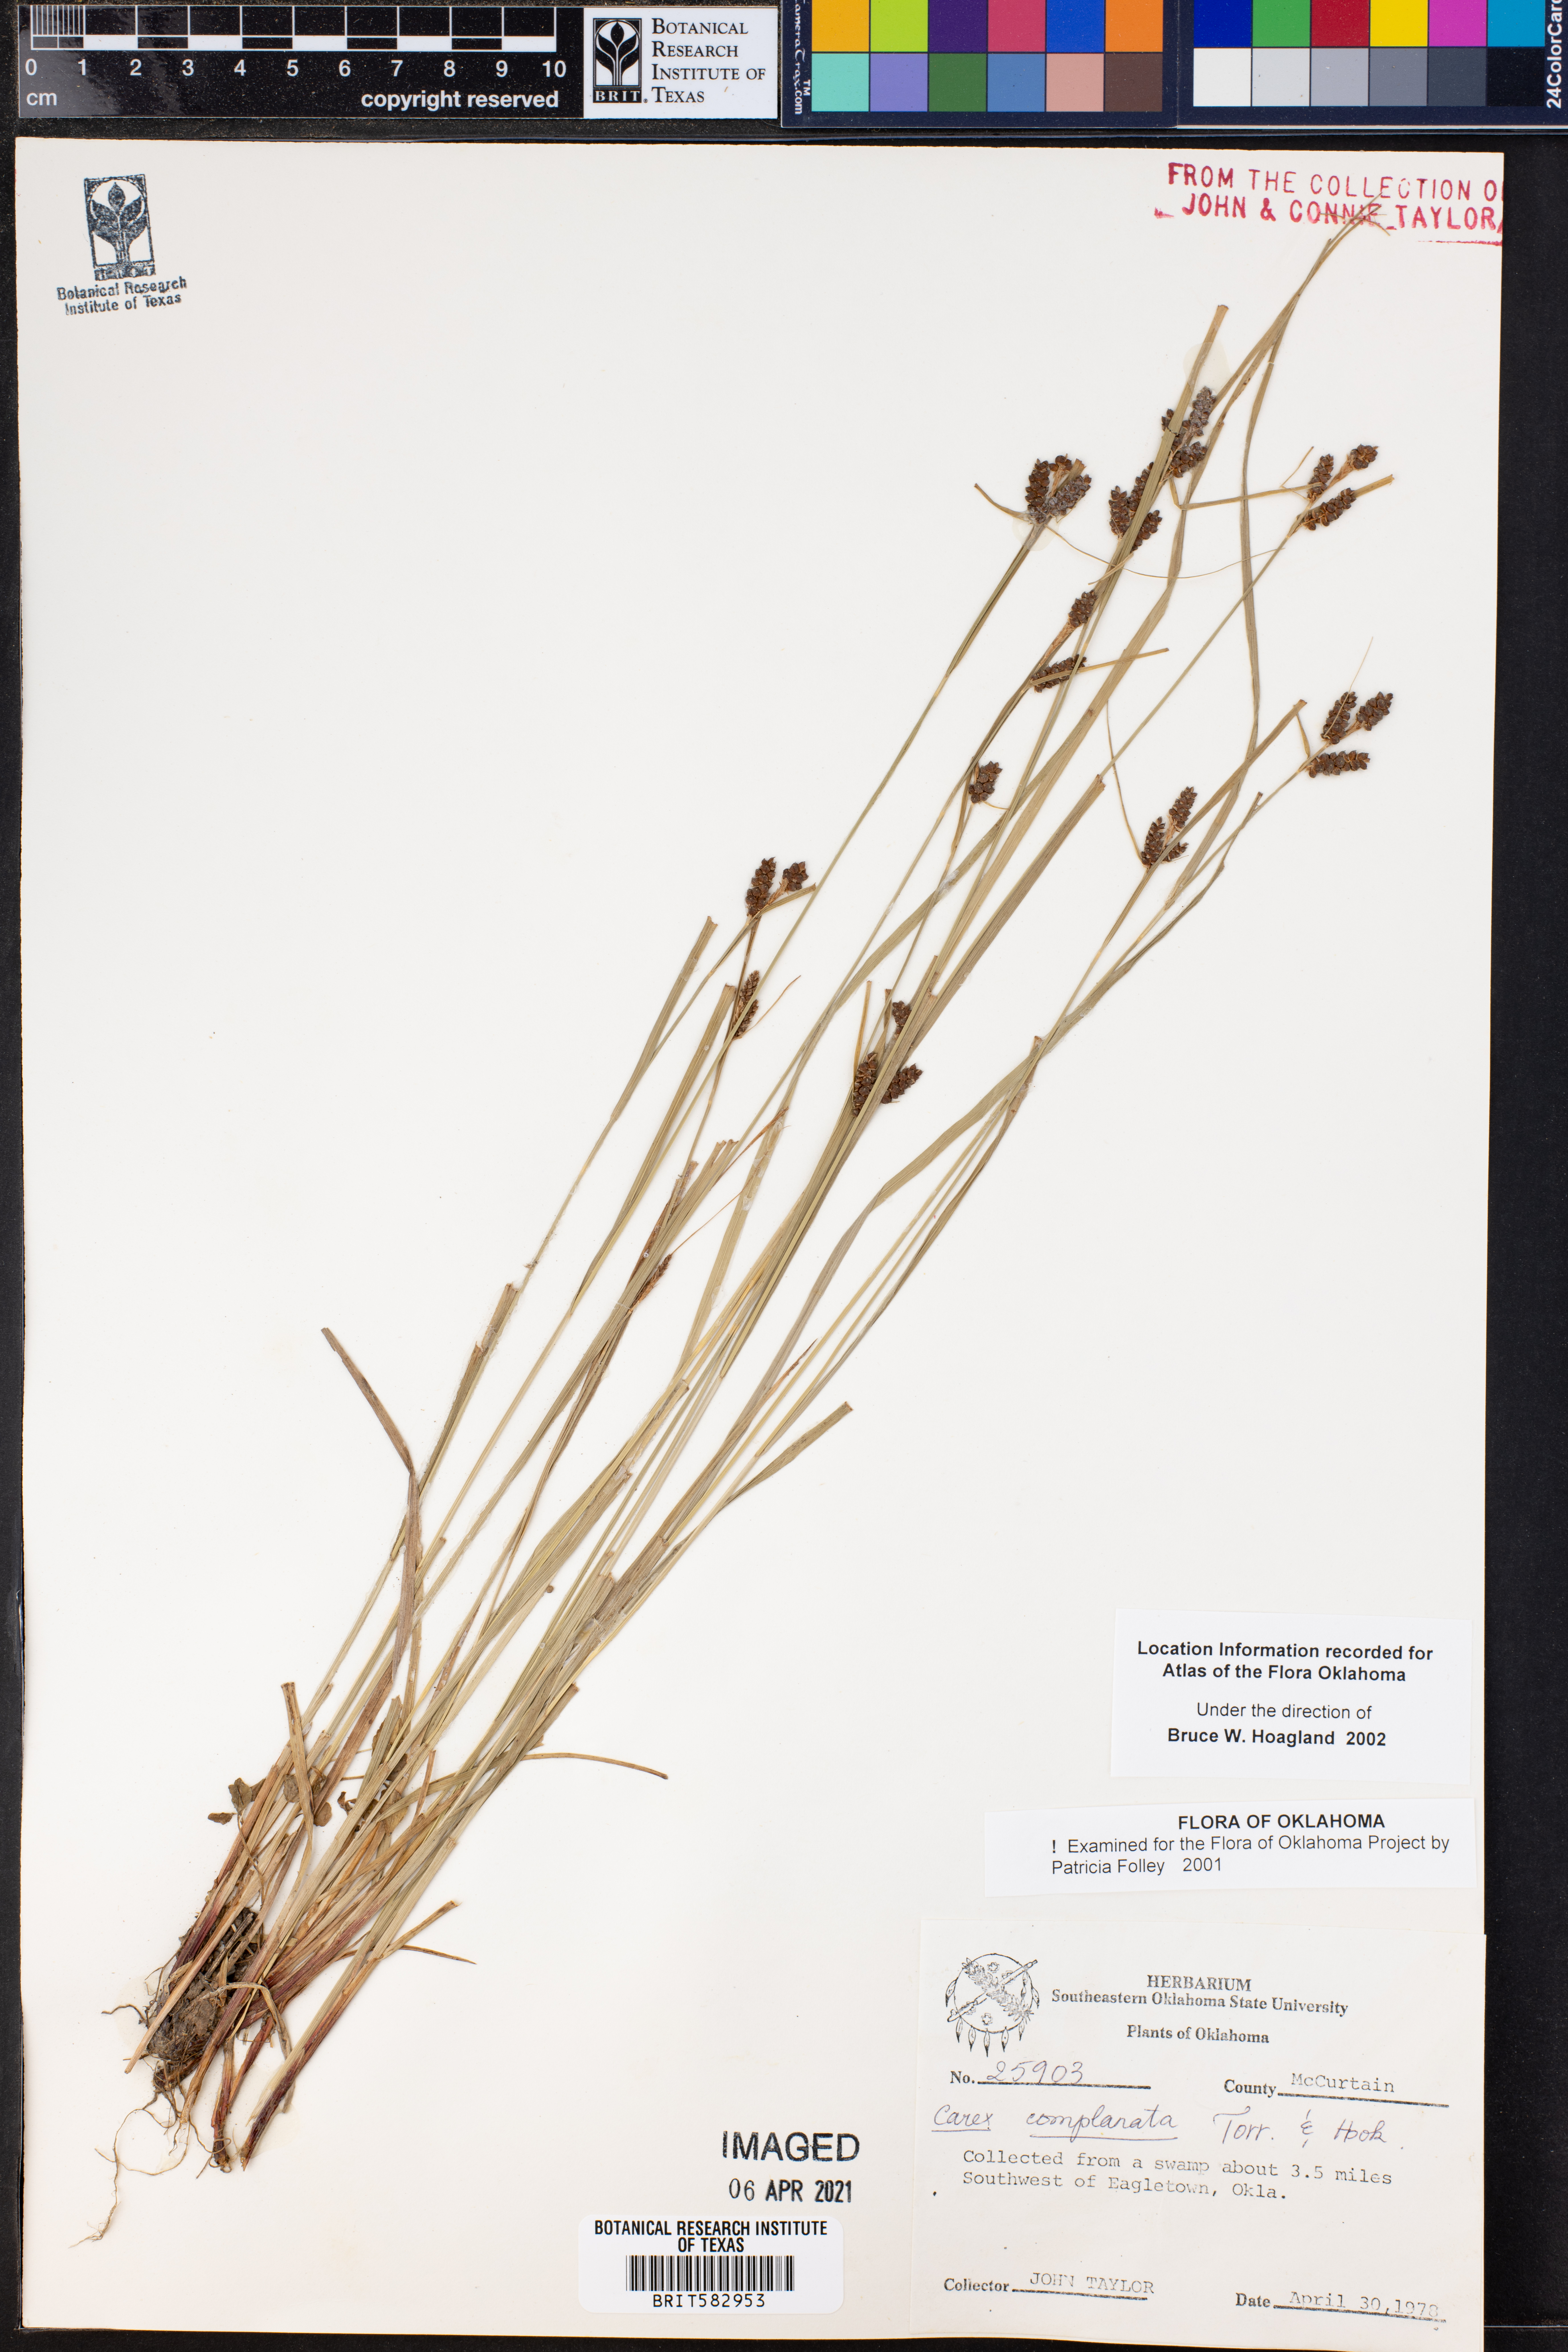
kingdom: Plantae
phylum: Tracheophyta
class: Liliopsida
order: Poales
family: Cyperaceae
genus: Carex
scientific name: Carex complanata
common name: Hirsute sedge
